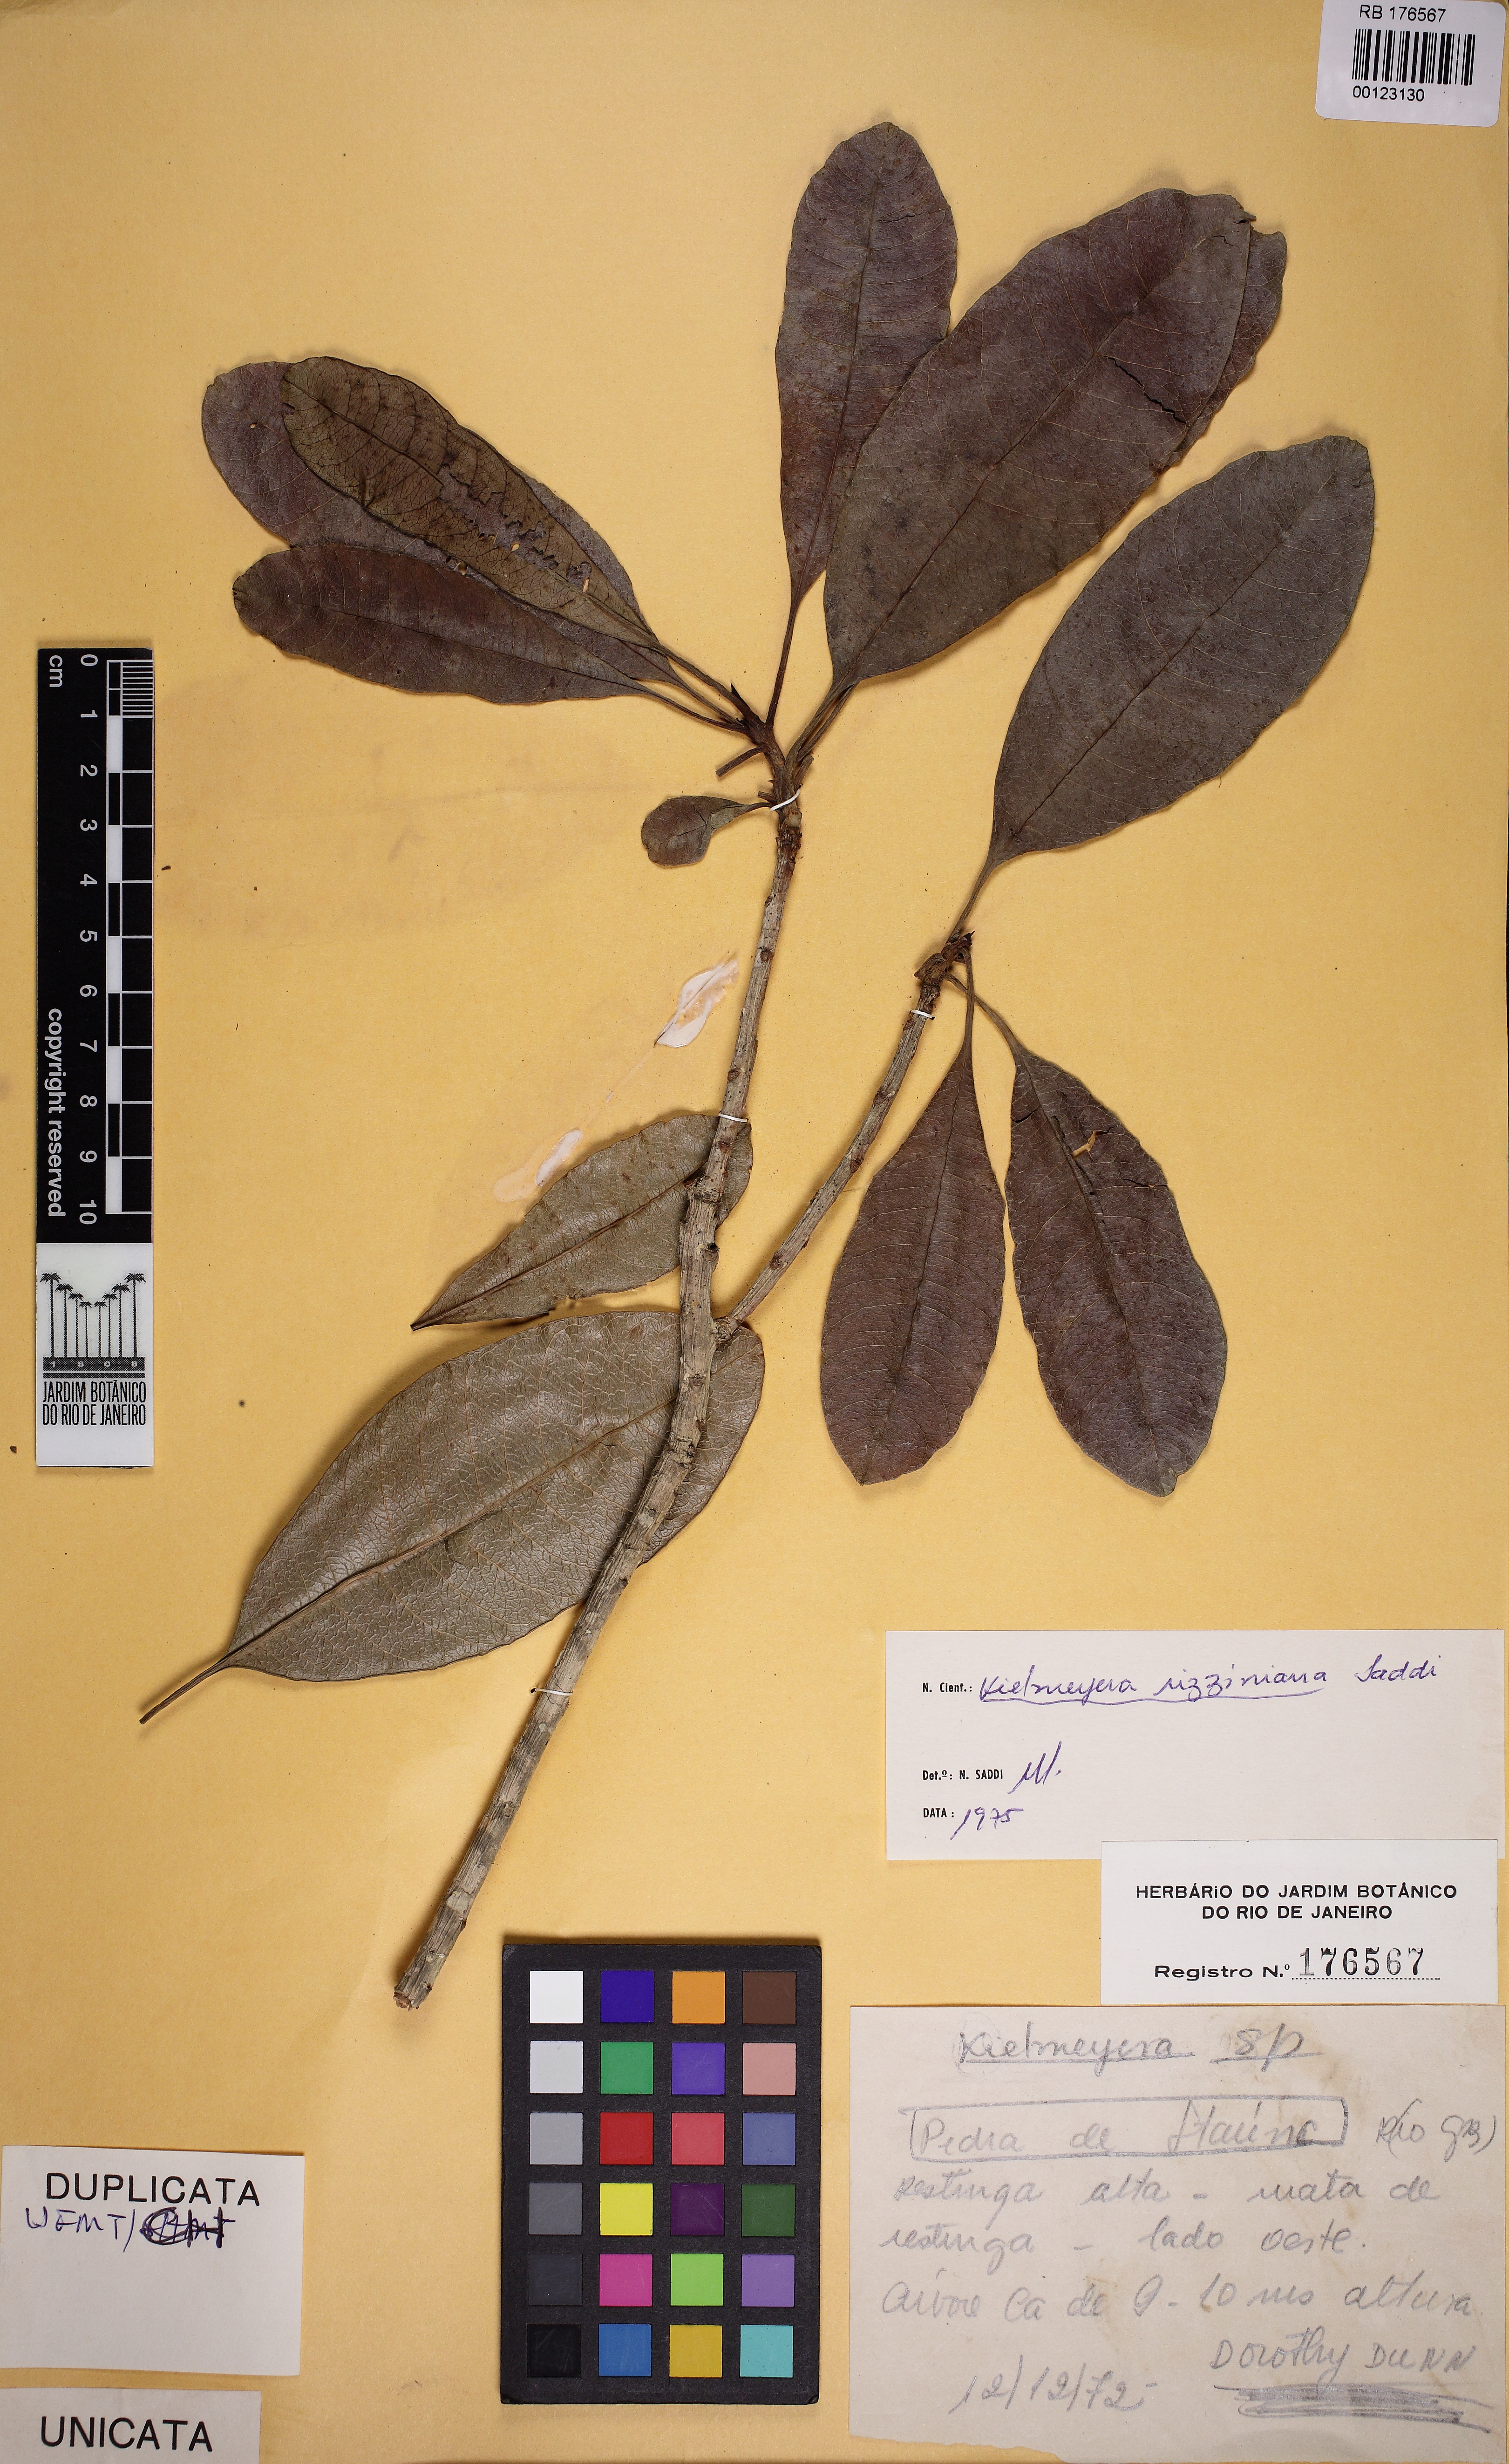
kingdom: Plantae
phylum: Tracheophyta
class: Magnoliopsida
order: Malpighiales
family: Calophyllaceae
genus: Kielmeyera
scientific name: Kielmeyera rizziniana
